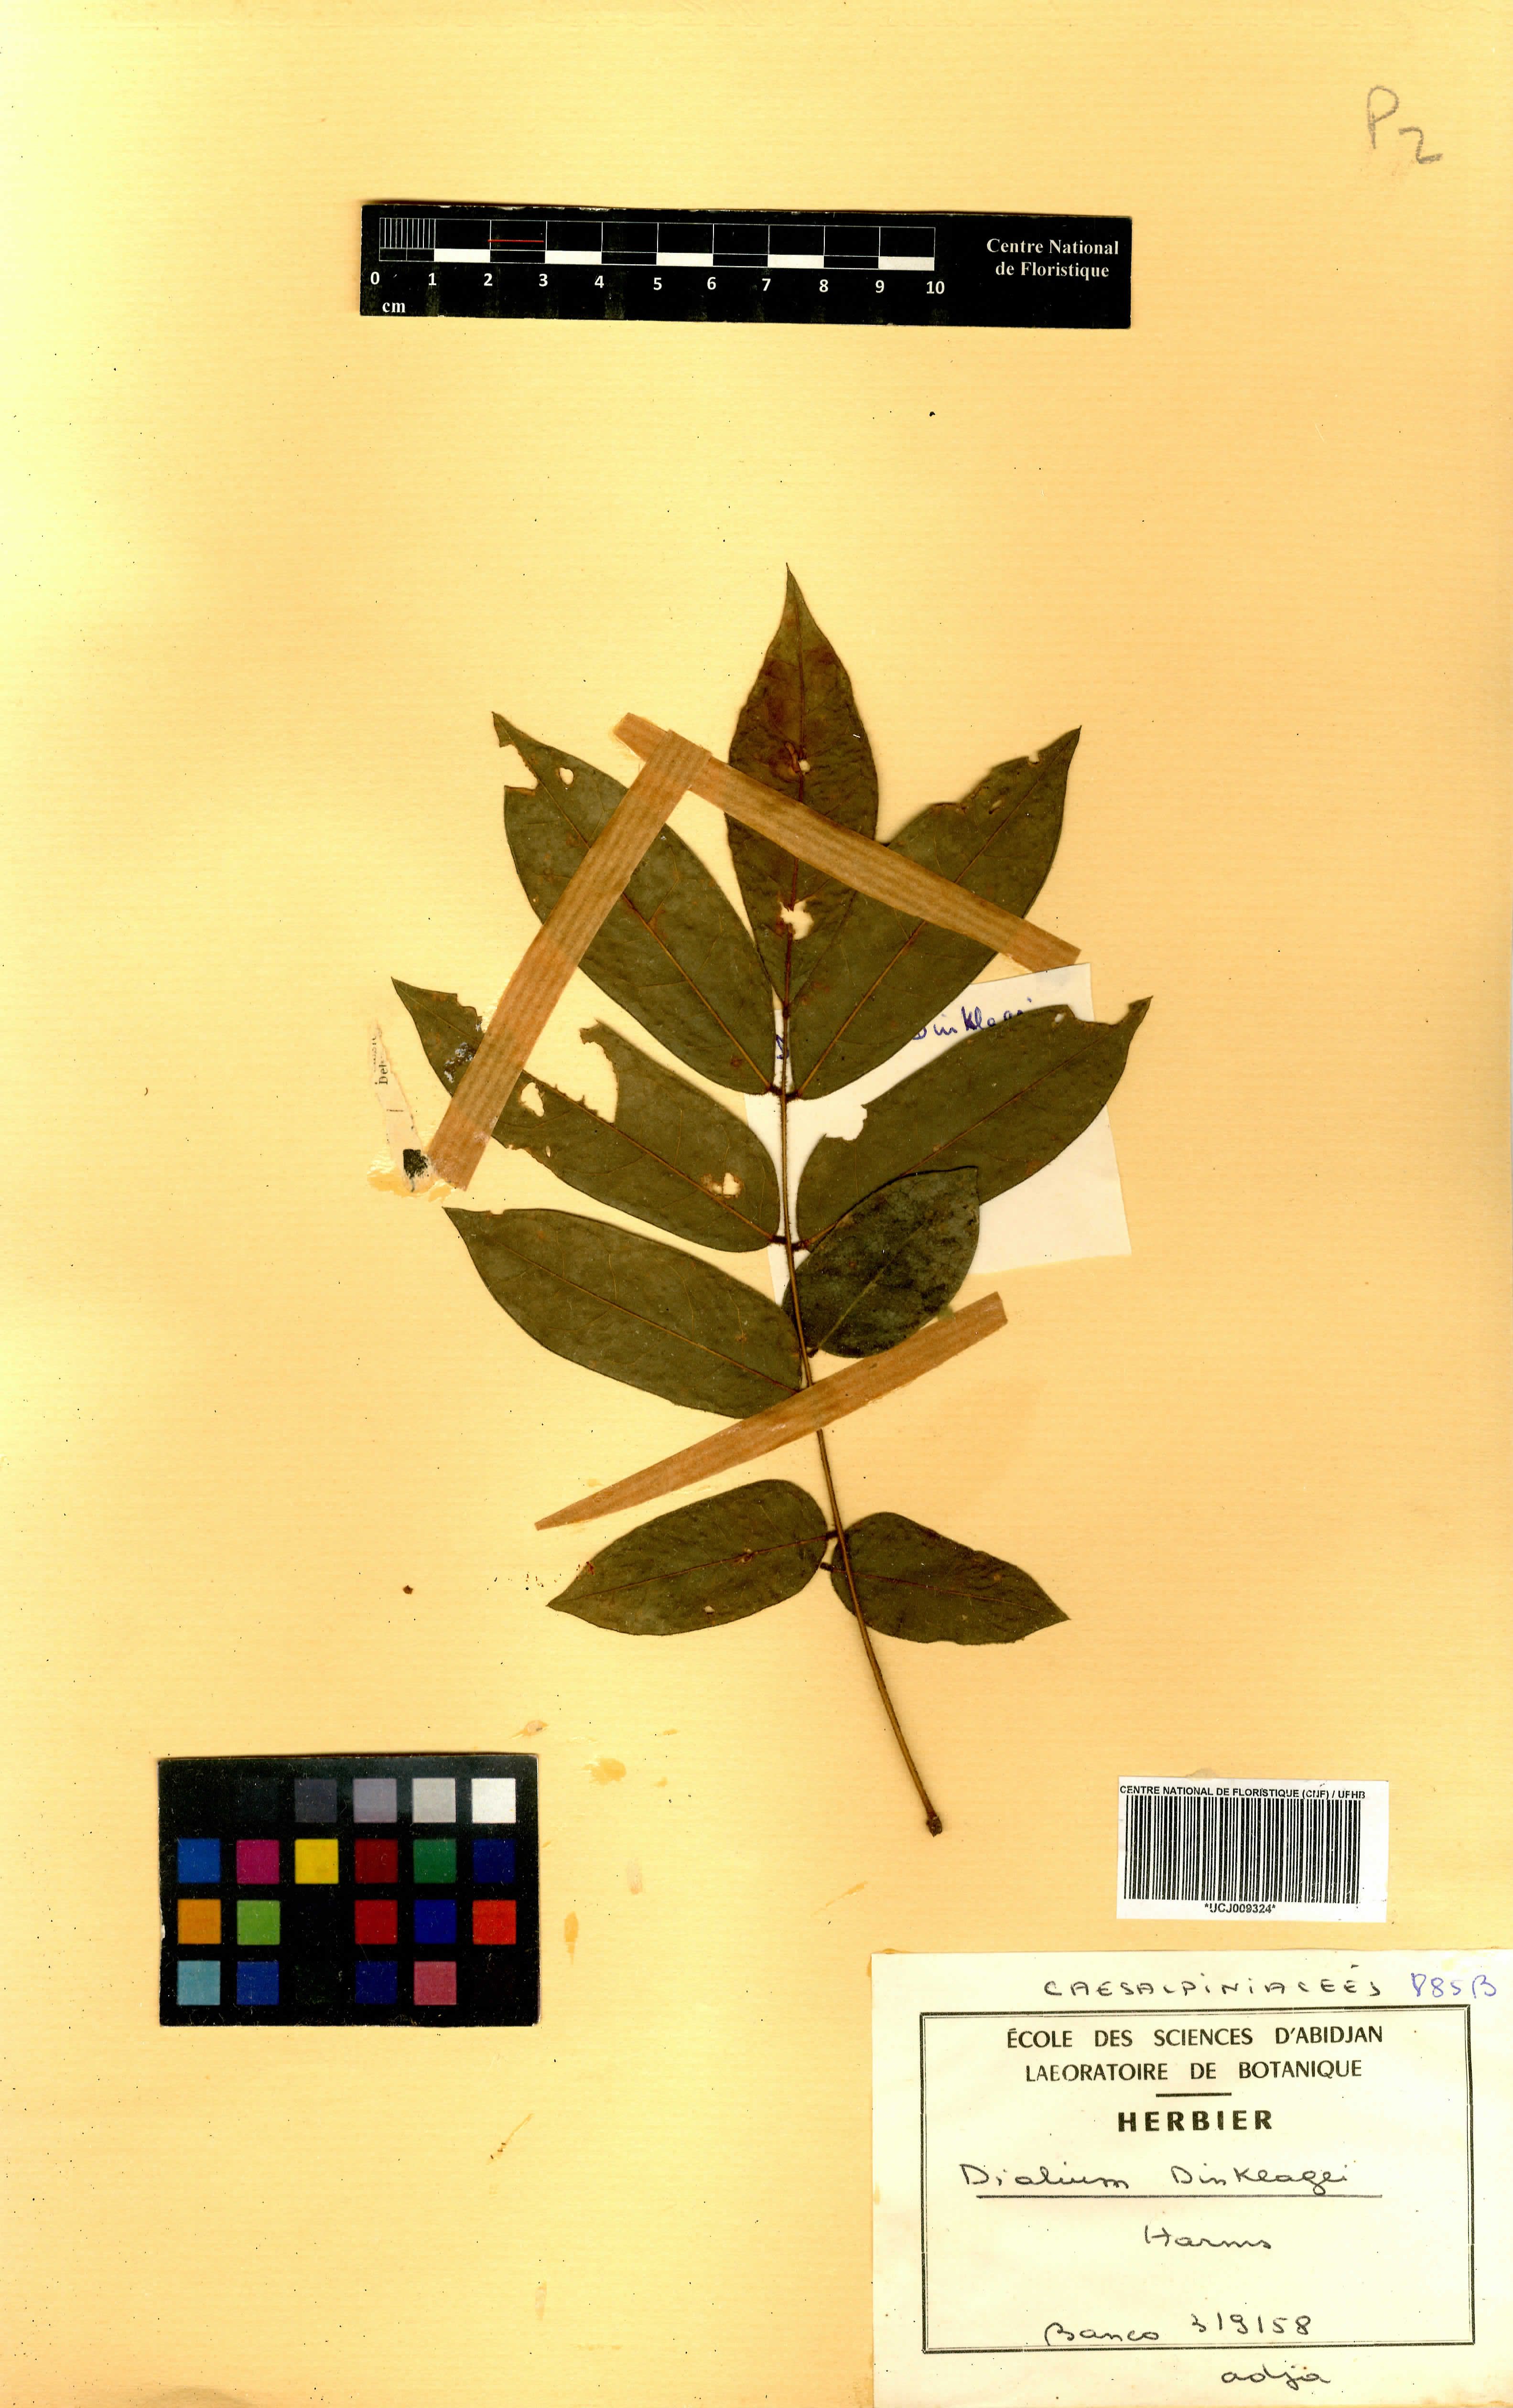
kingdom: Plantae
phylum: Tracheophyta
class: Magnoliopsida
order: Fabales
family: Fabaceae
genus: Dialium
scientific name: Dialium dinklagei
